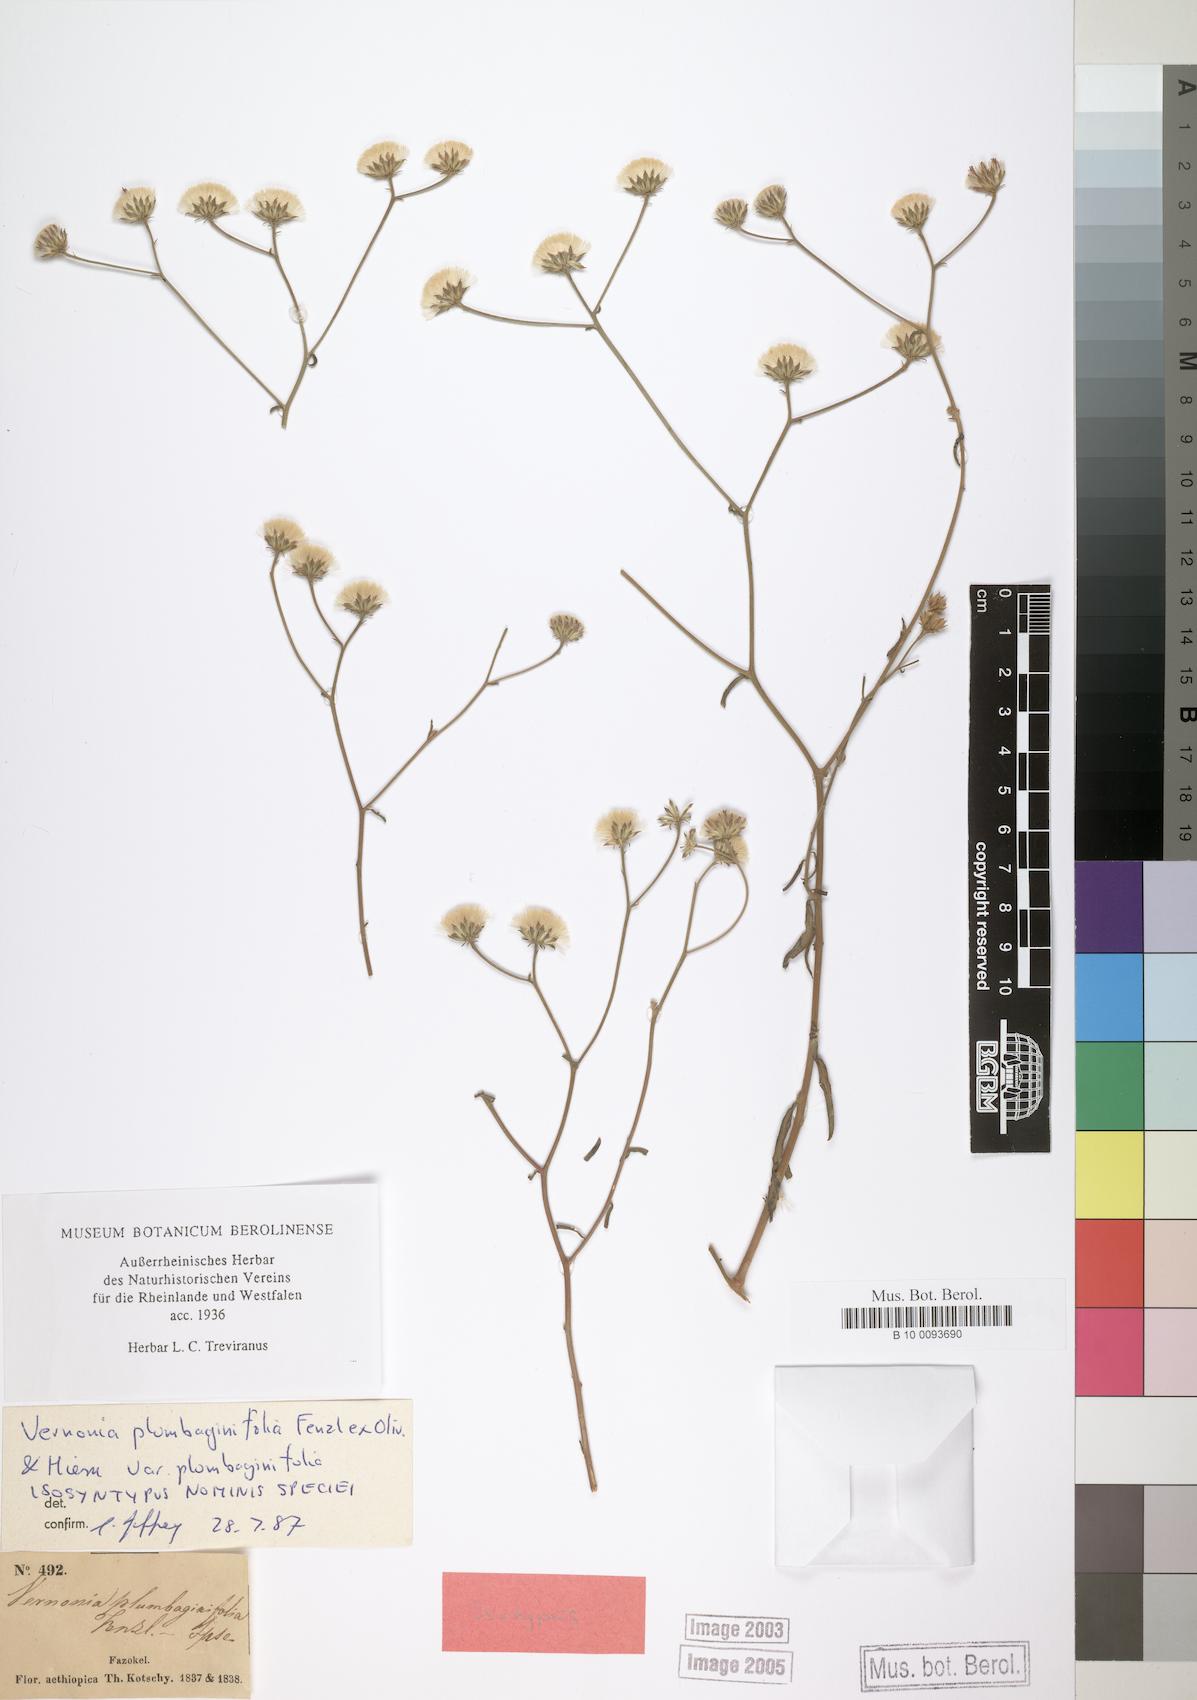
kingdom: Plantae
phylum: Tracheophyta
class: Magnoliopsida
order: Asterales
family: Asteraceae
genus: Vernonia
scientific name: Vernonia plumbaginifolia
